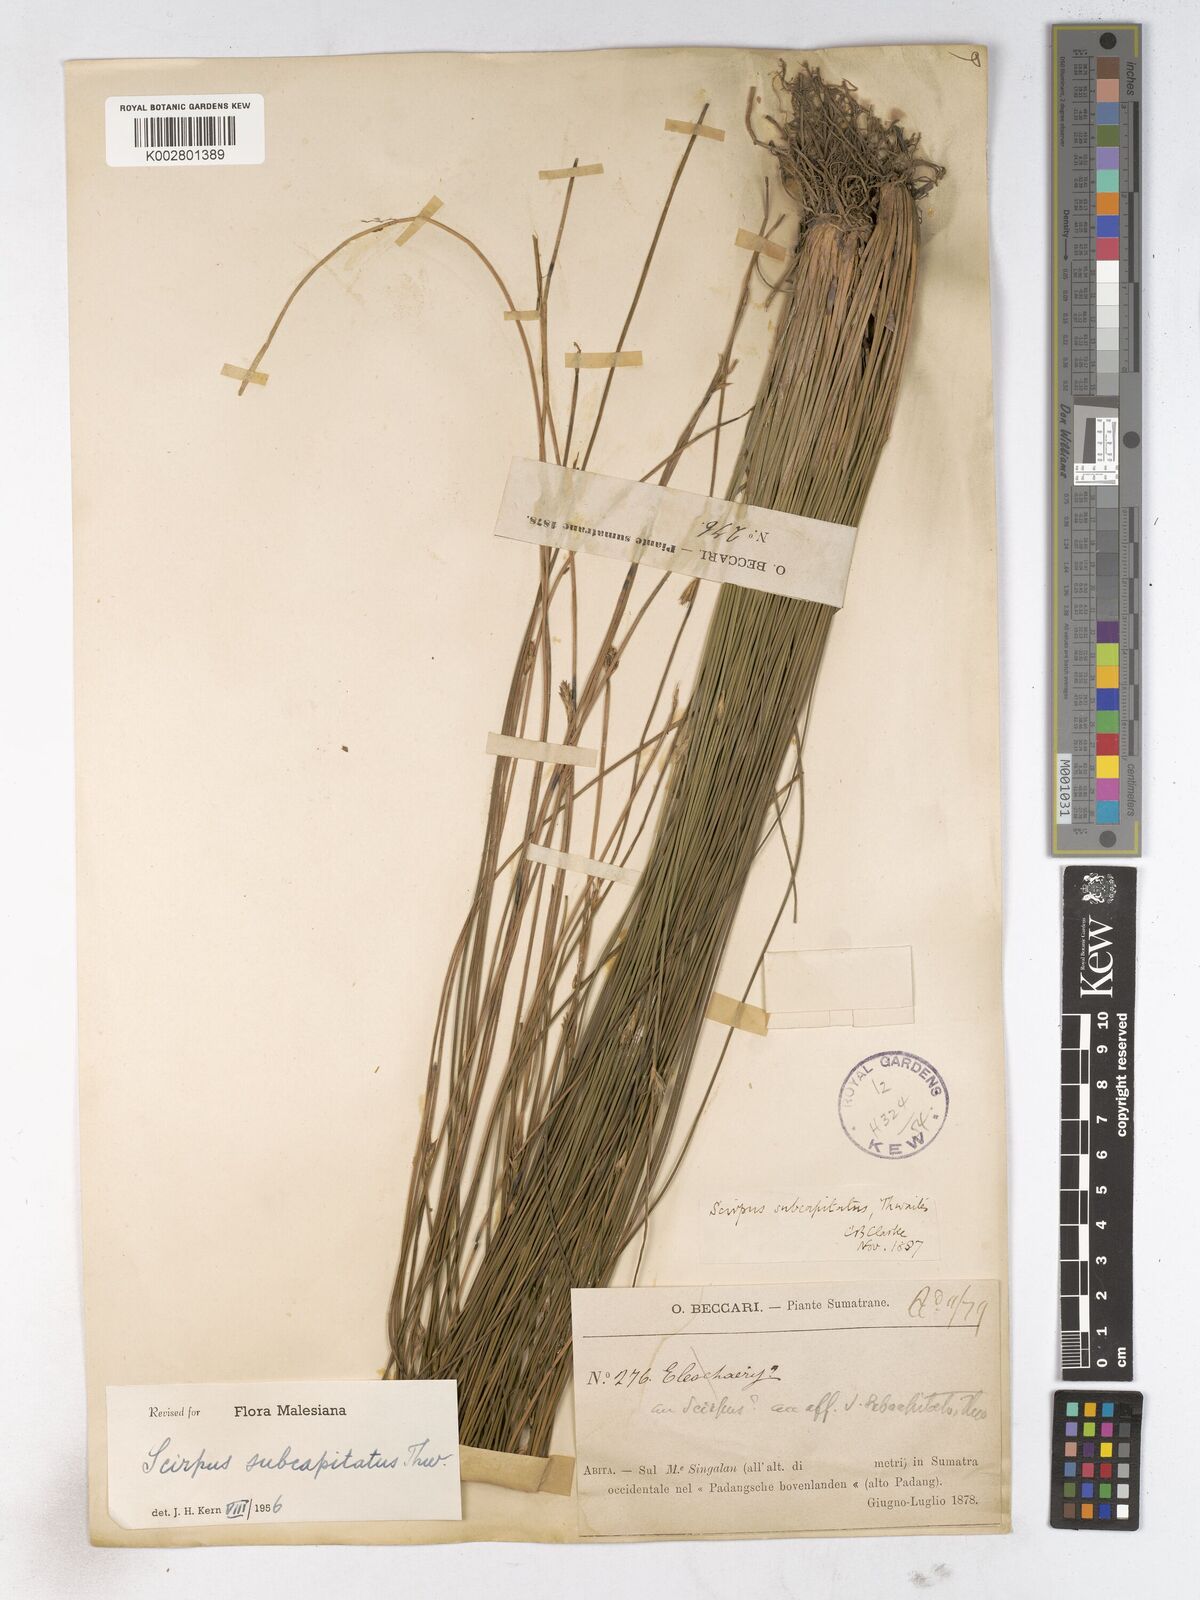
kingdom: Plantae
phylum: Tracheophyta
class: Liliopsida
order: Poales
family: Cyperaceae
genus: Trichophorum
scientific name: Trichophorum subcapitatum
